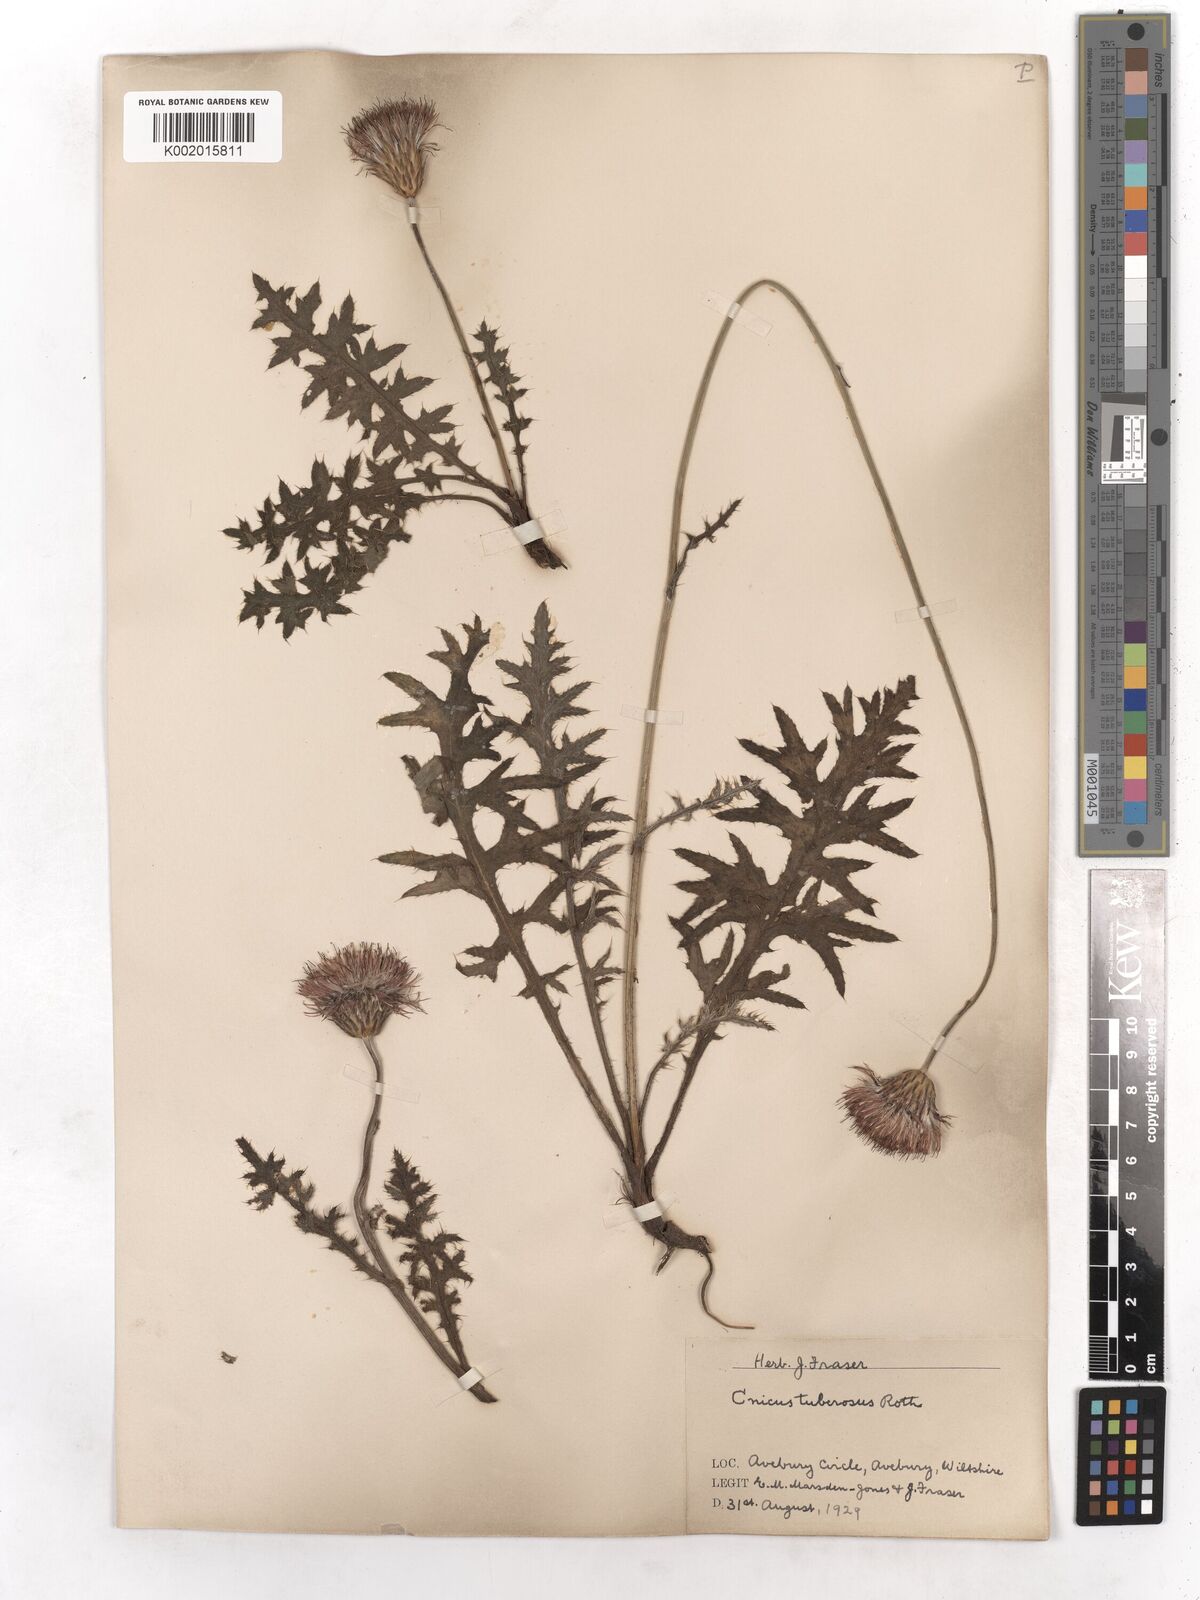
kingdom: Plantae
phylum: Tracheophyta
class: Magnoliopsida
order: Asterales
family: Asteraceae
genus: Cirsium
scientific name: Cirsium
